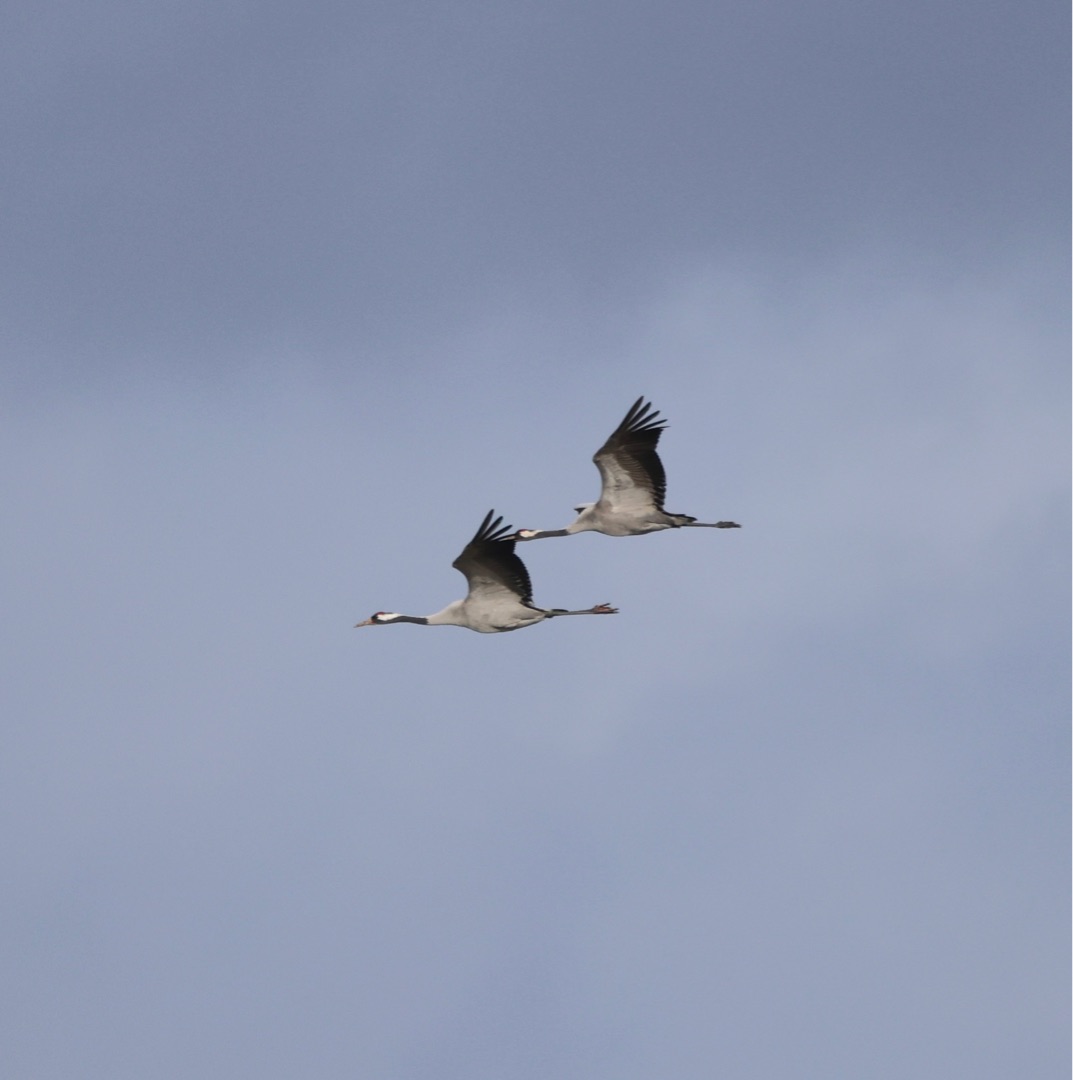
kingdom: Animalia
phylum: Chordata
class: Aves
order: Gruiformes
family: Gruidae
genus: Grus
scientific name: Grus grus
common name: Trane
